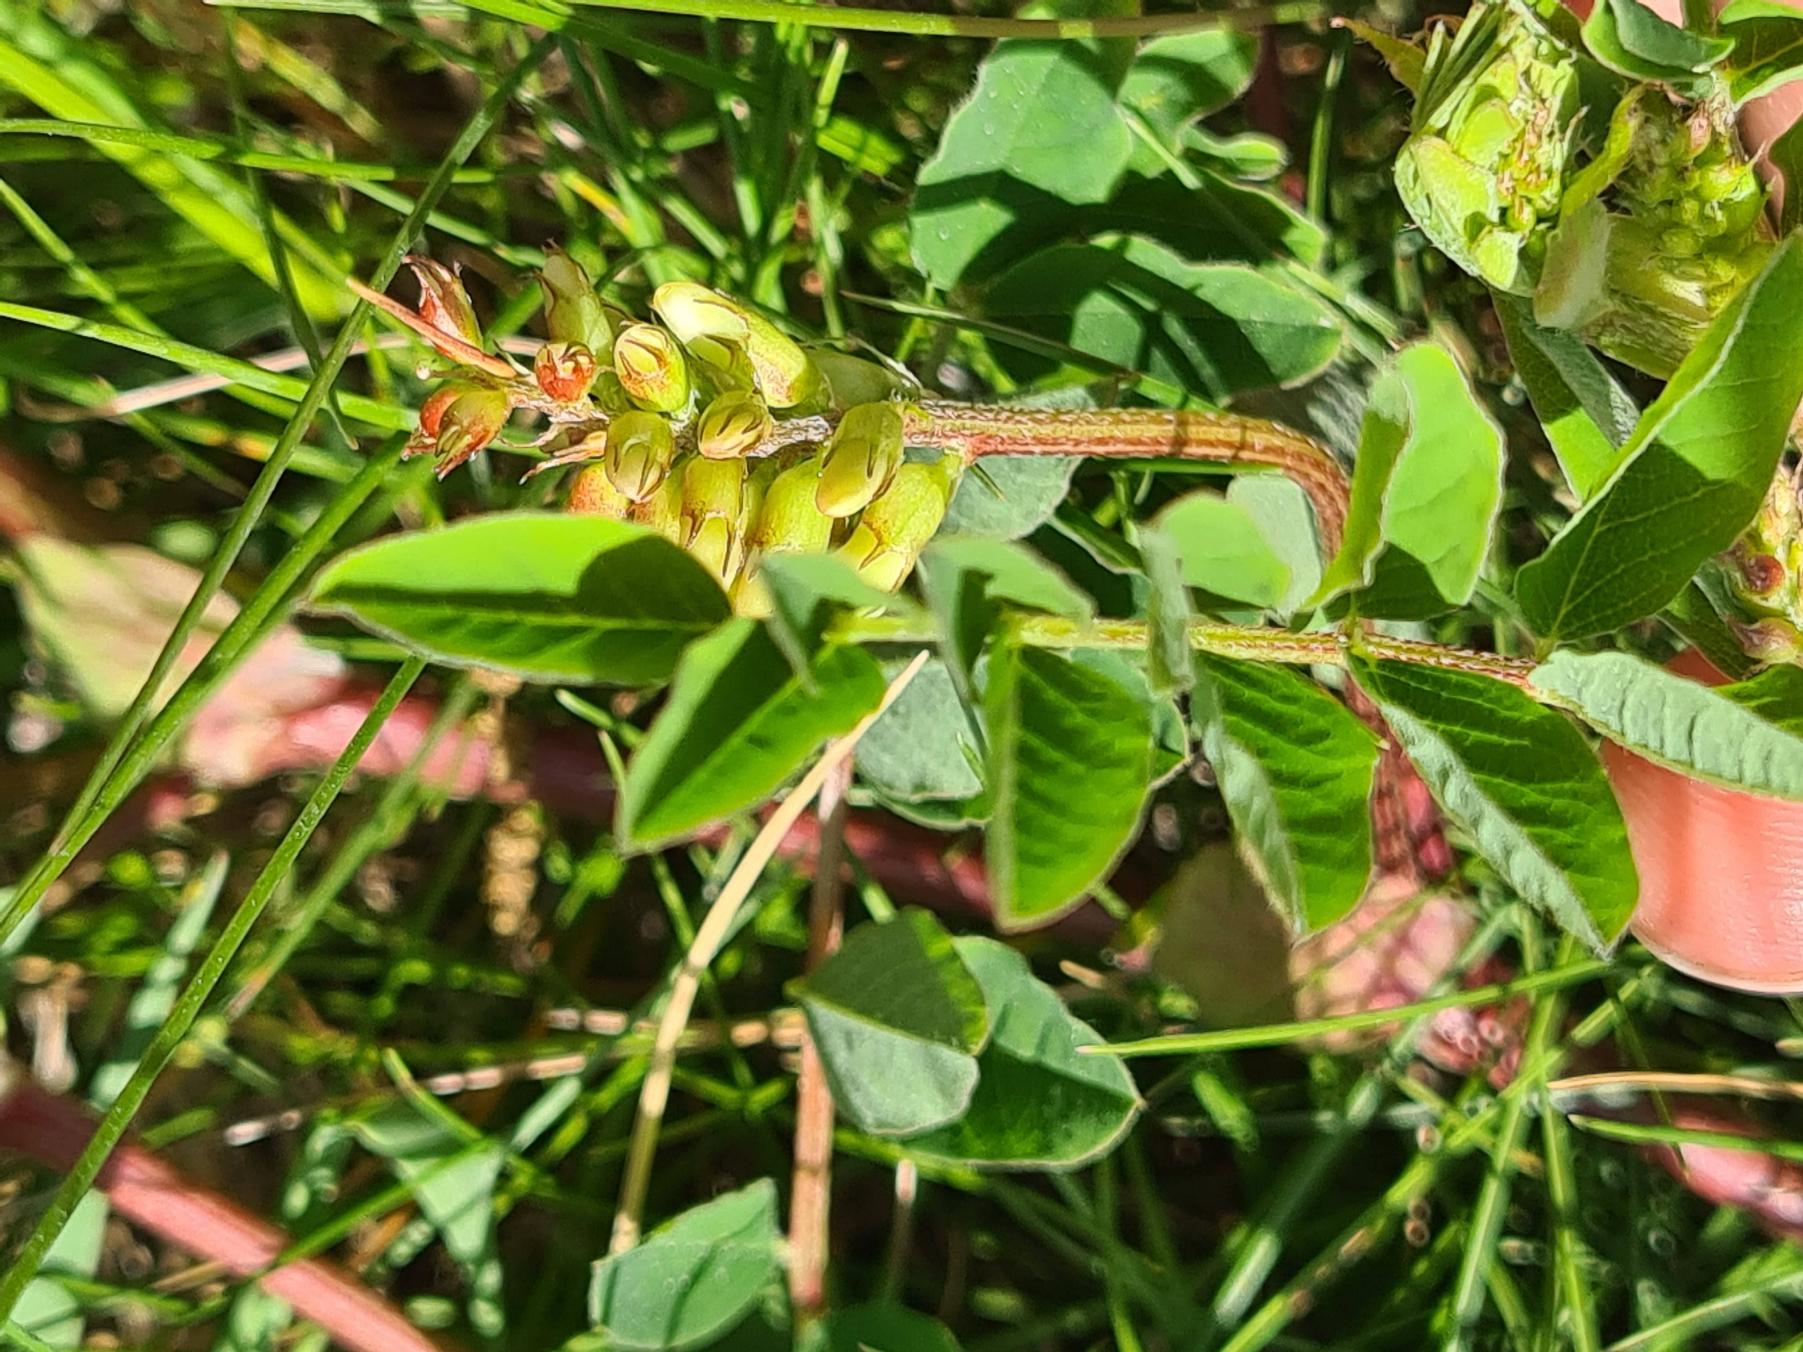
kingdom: Plantae
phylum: Tracheophyta
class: Magnoliopsida
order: Fabales
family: Fabaceae
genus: Astragalus
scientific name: Astragalus glycyphyllos
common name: Sød astragel
